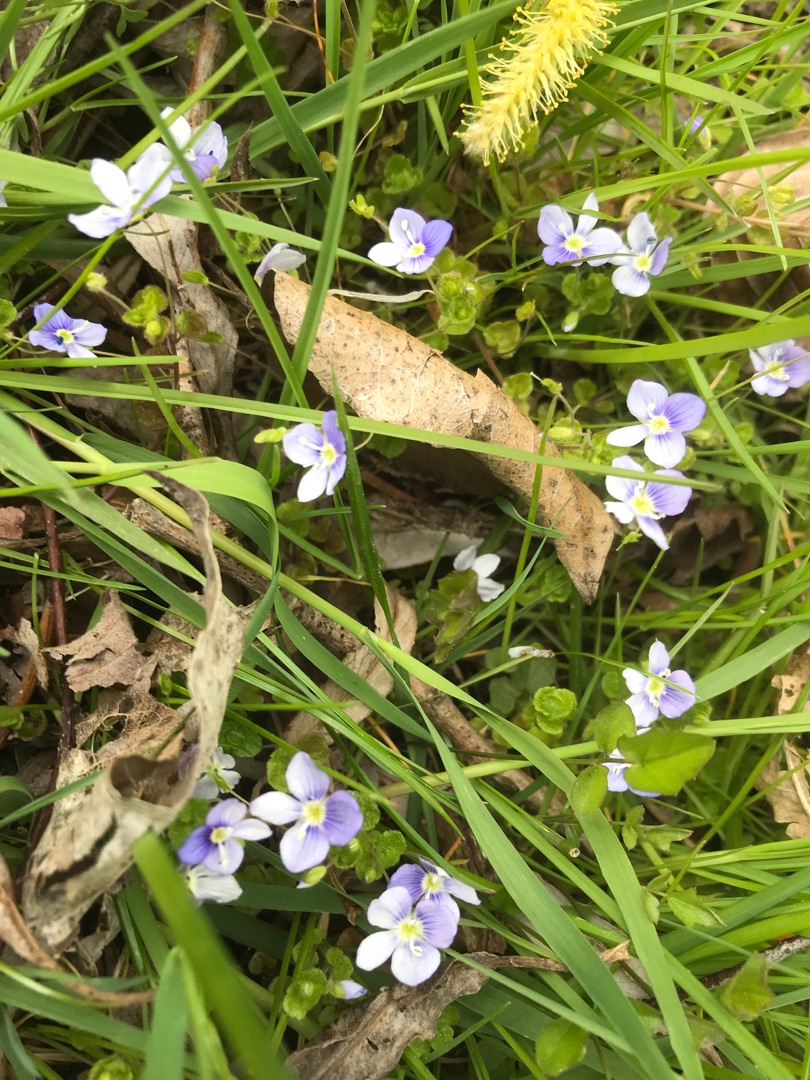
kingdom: Plantae
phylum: Tracheophyta
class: Magnoliopsida
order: Lamiales
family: Plantaginaceae
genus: Veronica
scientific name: Veronica filiformis
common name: Tråd-ærenpris
